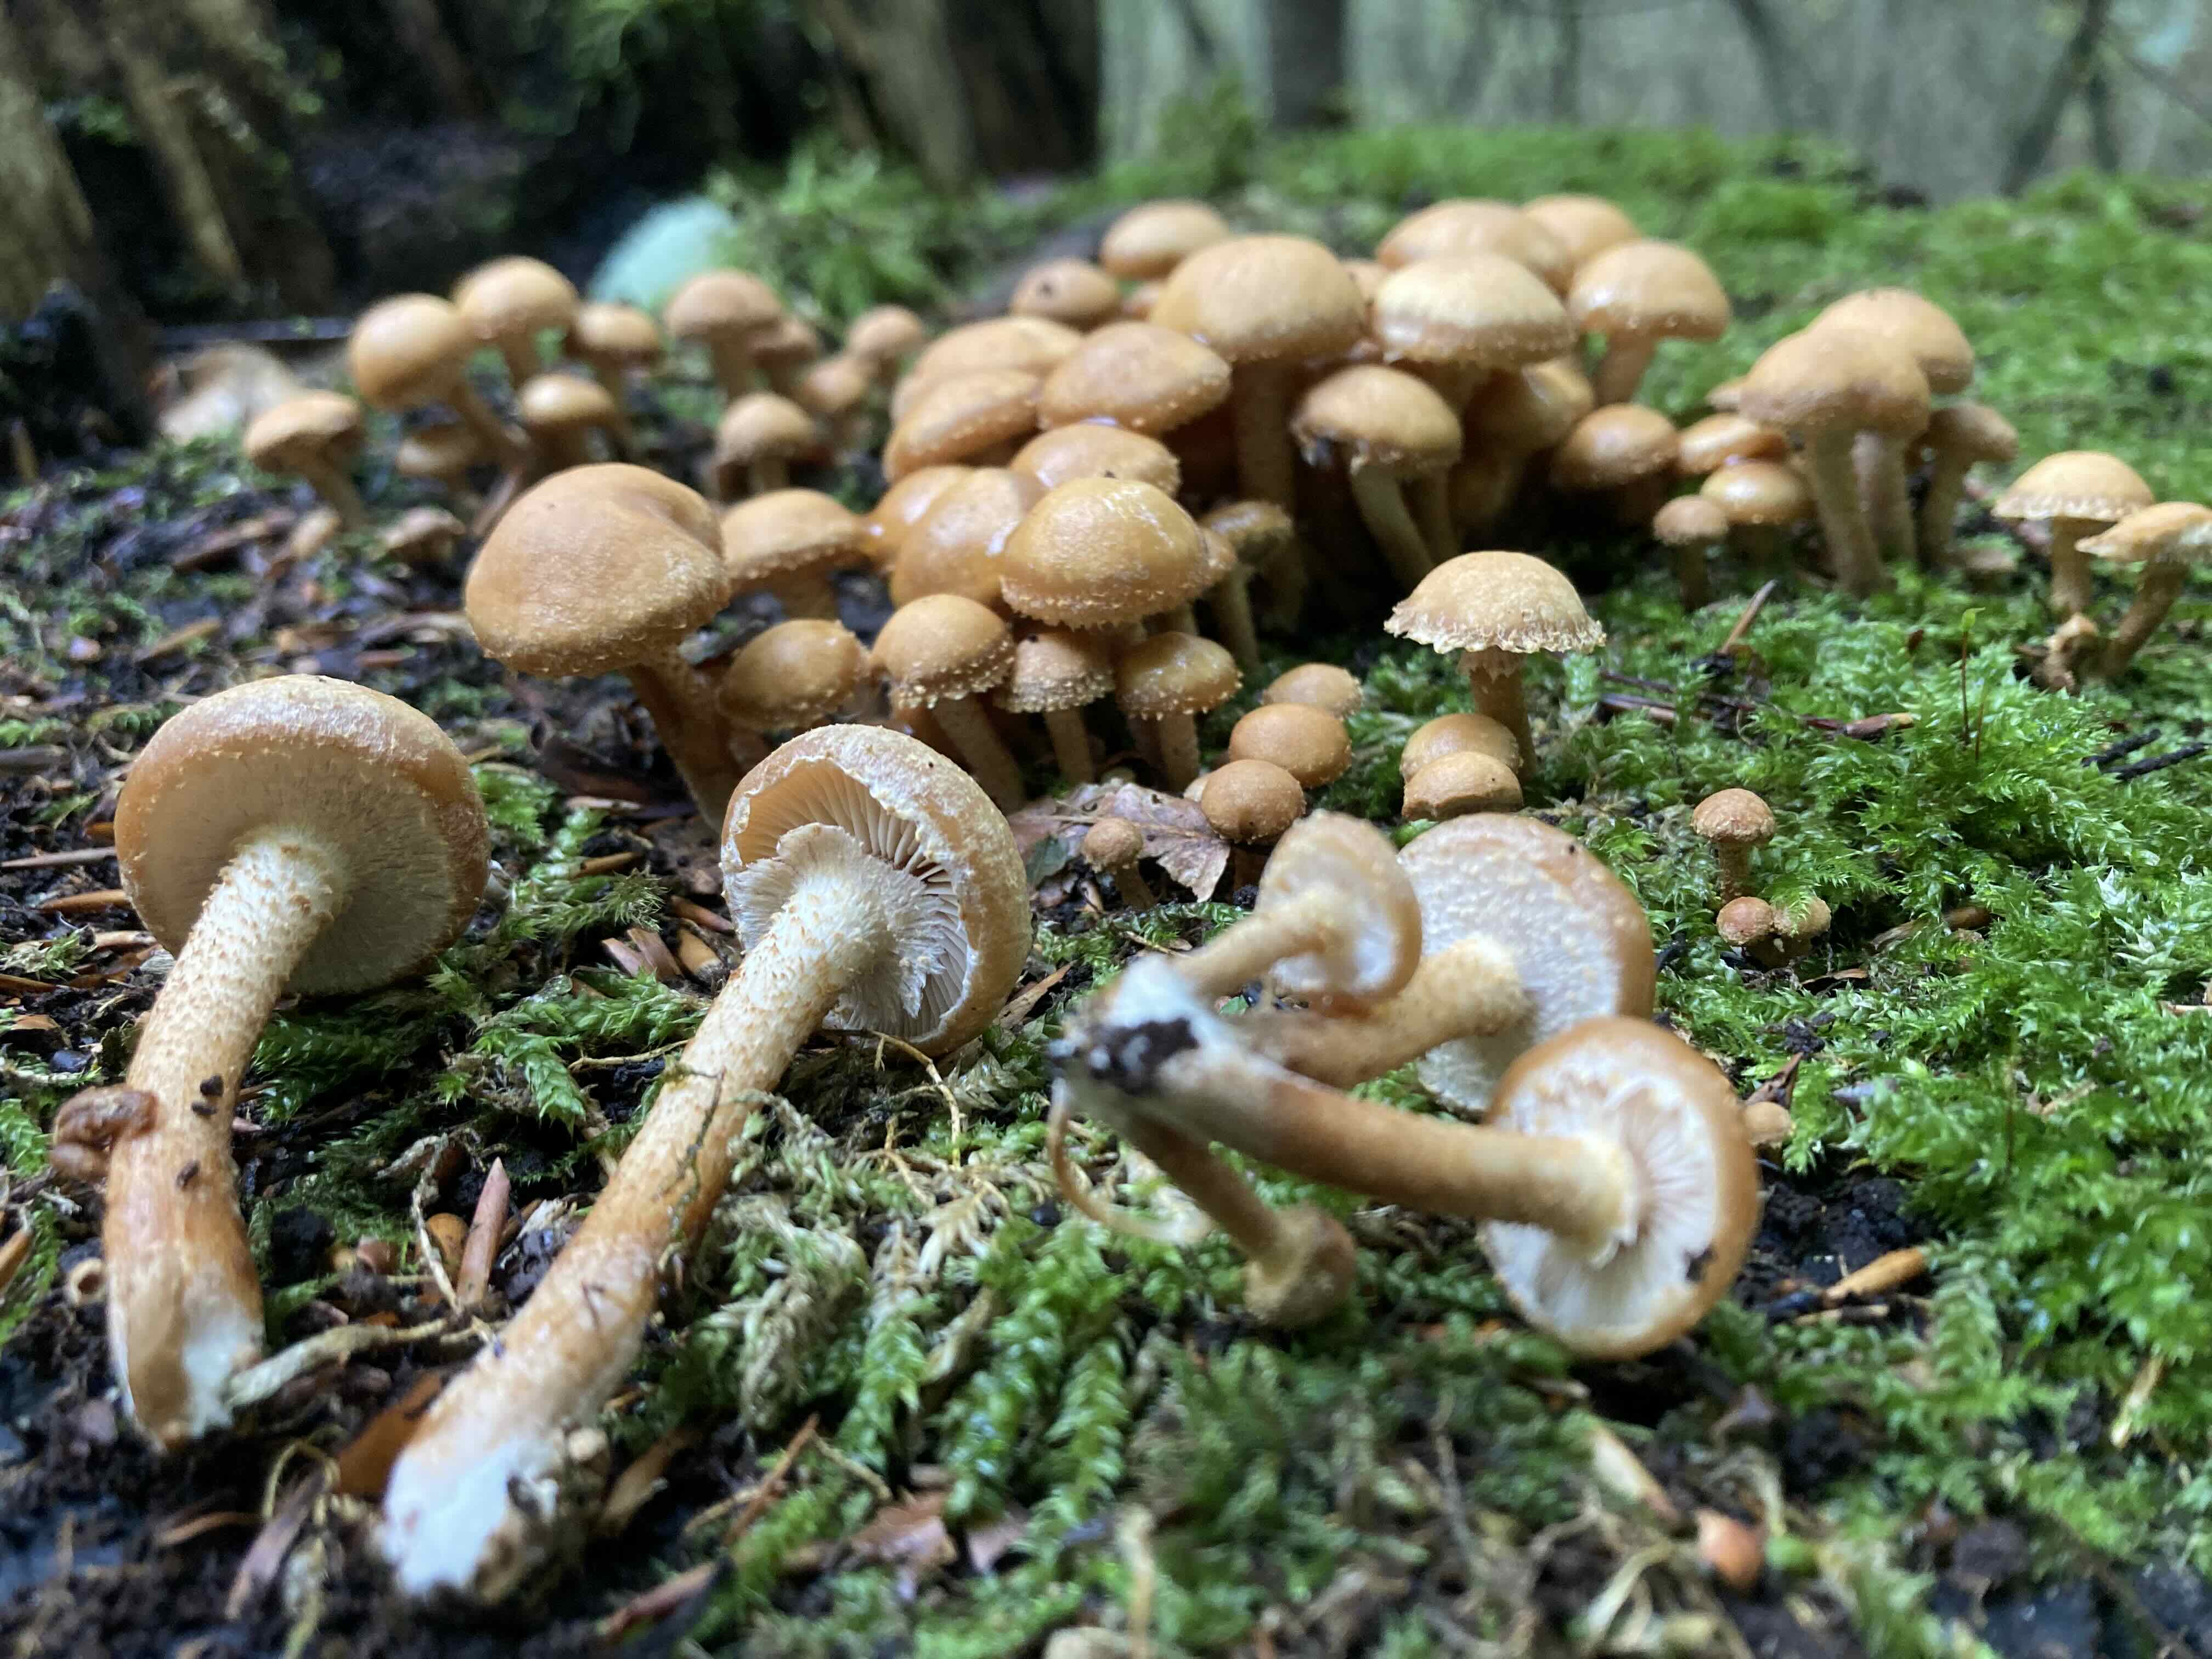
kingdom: Fungi
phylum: Basidiomycota
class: Agaricomycetes
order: Agaricales
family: Strophariaceae
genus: Kuehneromyces
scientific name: Kuehneromyces mutabilis
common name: foranderlig skælhat
